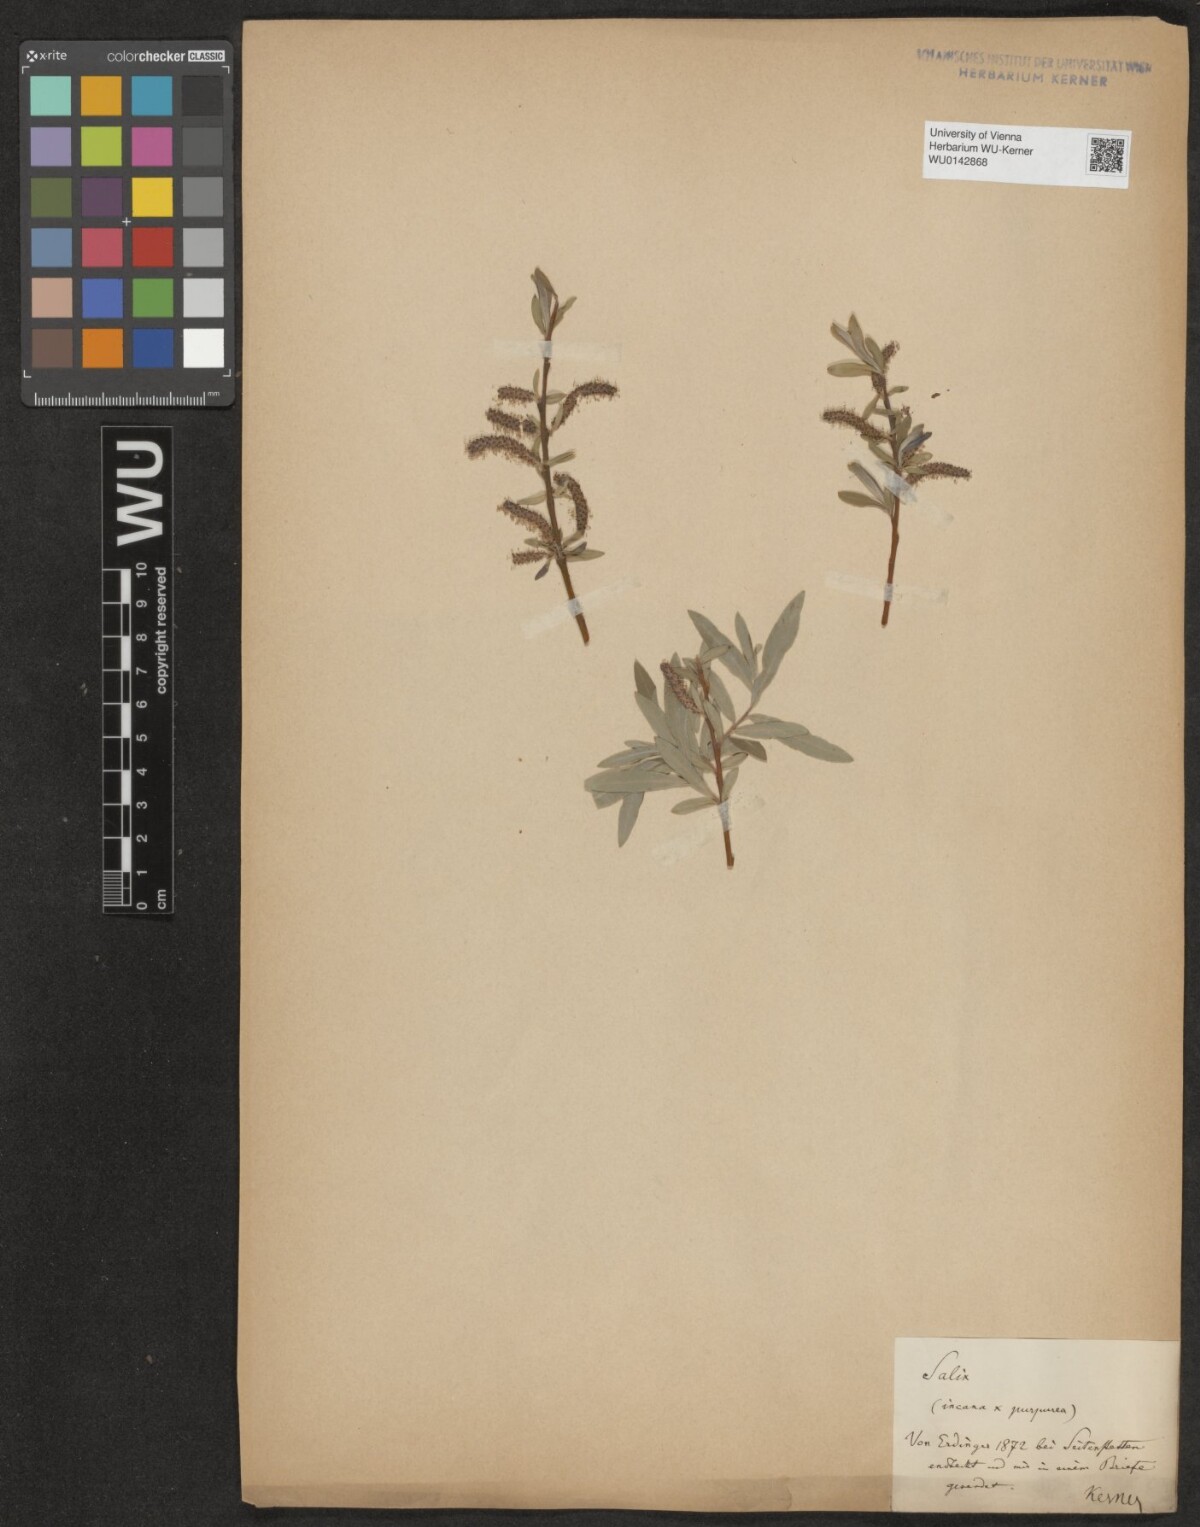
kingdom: Plantae
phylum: Tracheophyta
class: Magnoliopsida
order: Malpighiales
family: Salicaceae
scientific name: Salicaceae
